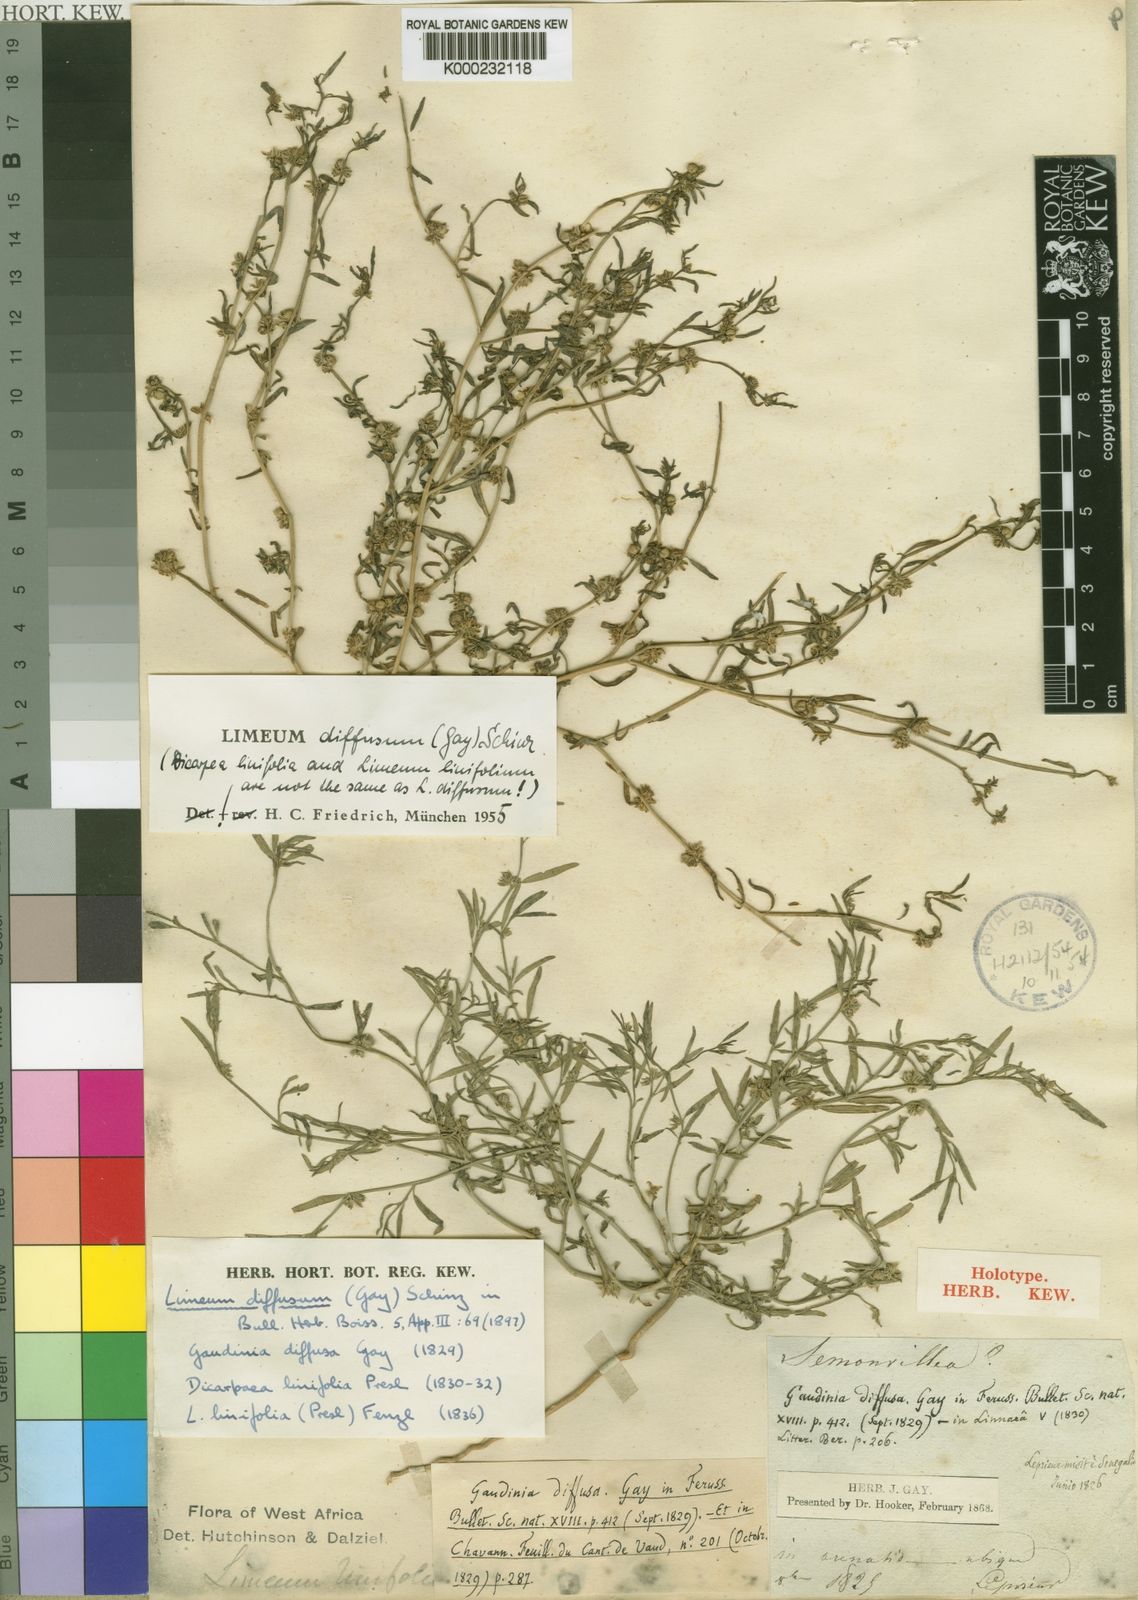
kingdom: Plantae
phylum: Tracheophyta
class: Magnoliopsida
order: Caryophyllales
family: Limeaceae
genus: Limeum
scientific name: Limeum diffusum
